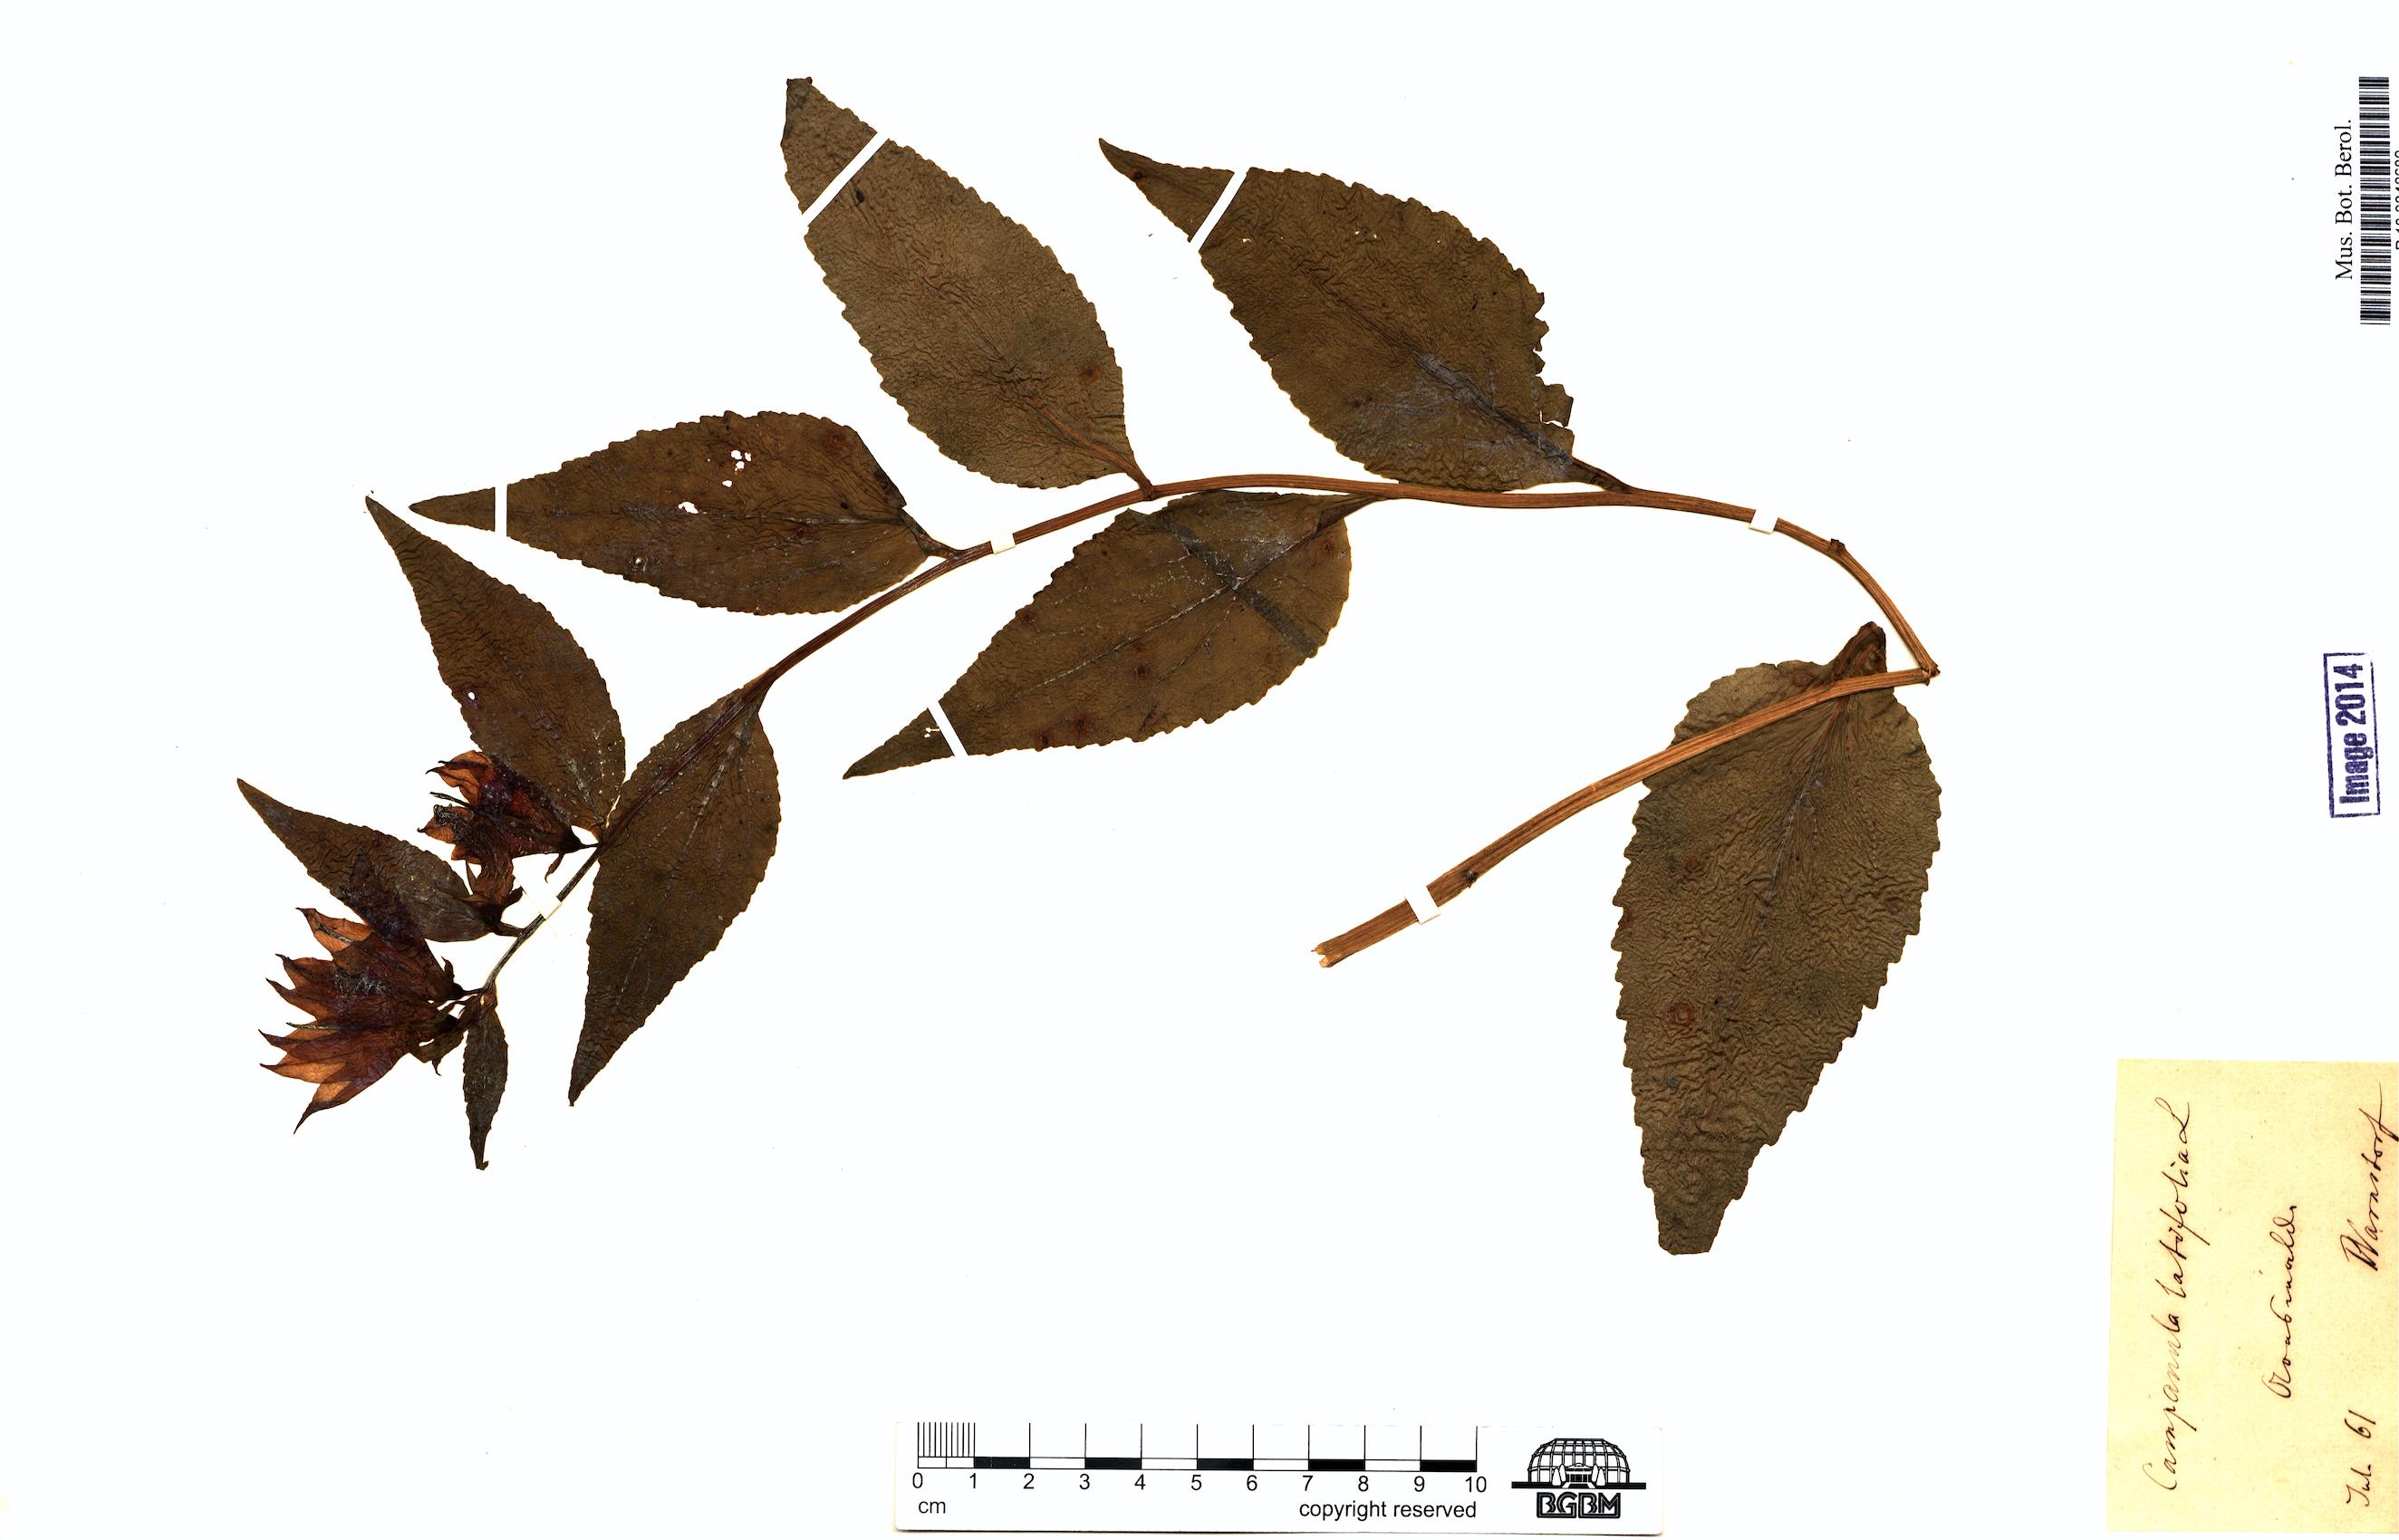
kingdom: Plantae
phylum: Tracheophyta
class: Magnoliopsida
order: Asterales
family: Campanulaceae
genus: Campanula
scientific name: Campanula latifolia
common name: Giant bellflower
